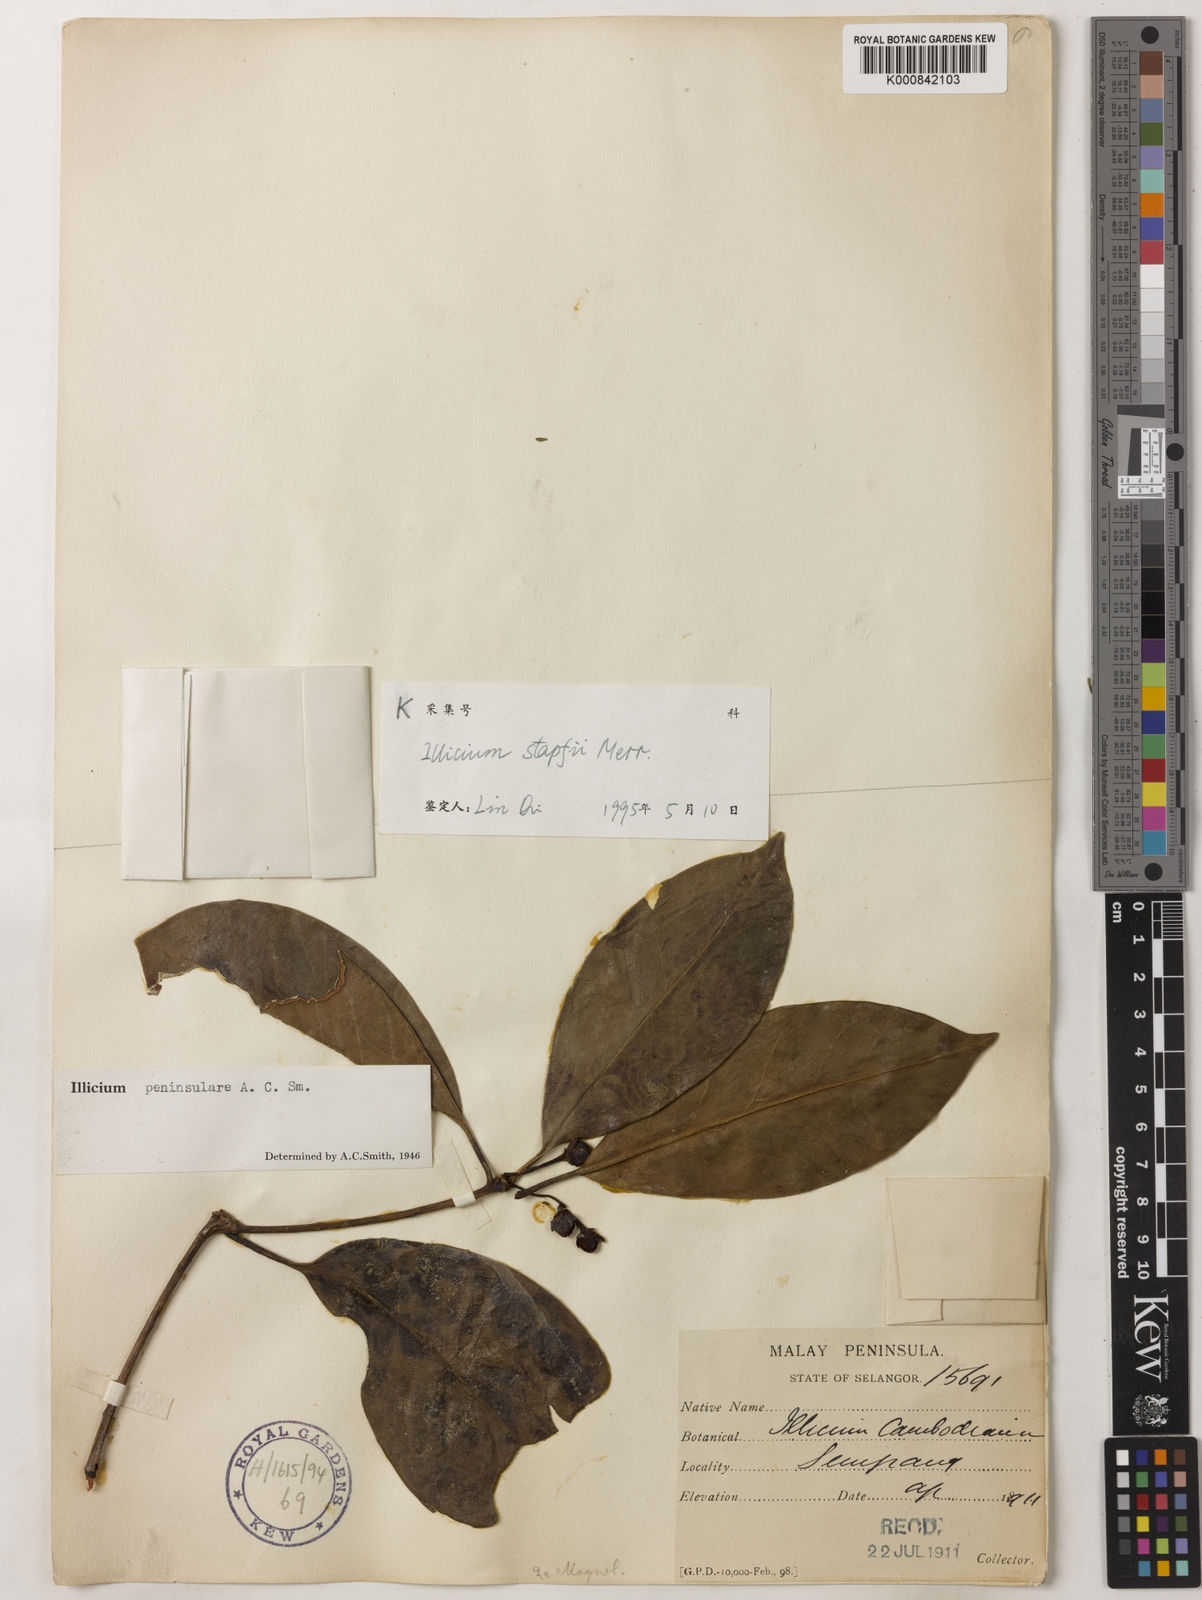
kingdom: Plantae
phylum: Tracheophyta
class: Magnoliopsida
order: Austrobaileyales
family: Schisandraceae
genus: Illicium
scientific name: Illicium stapfii
